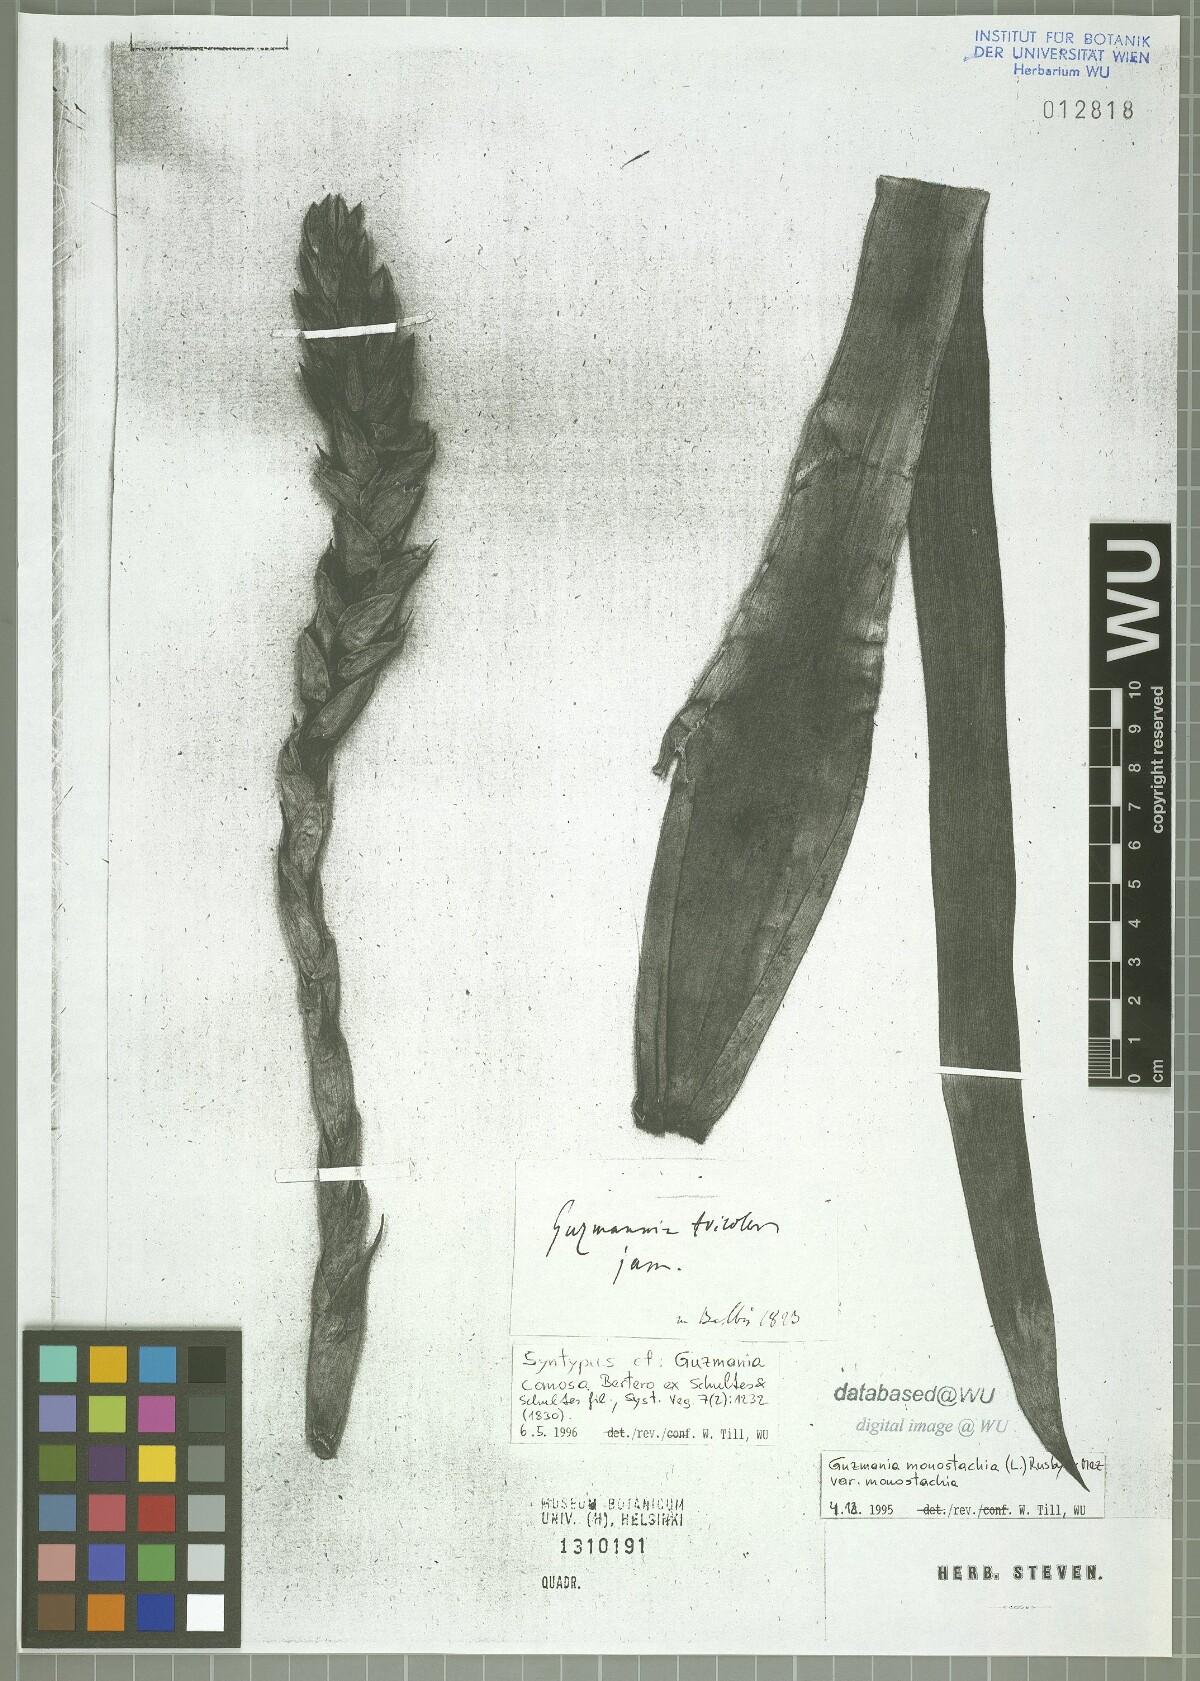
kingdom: Plantae
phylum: Tracheophyta
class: Liliopsida
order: Poales
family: Bromeliaceae
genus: Guzmania
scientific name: Guzmania monostachia
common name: West indian tufted airplant
